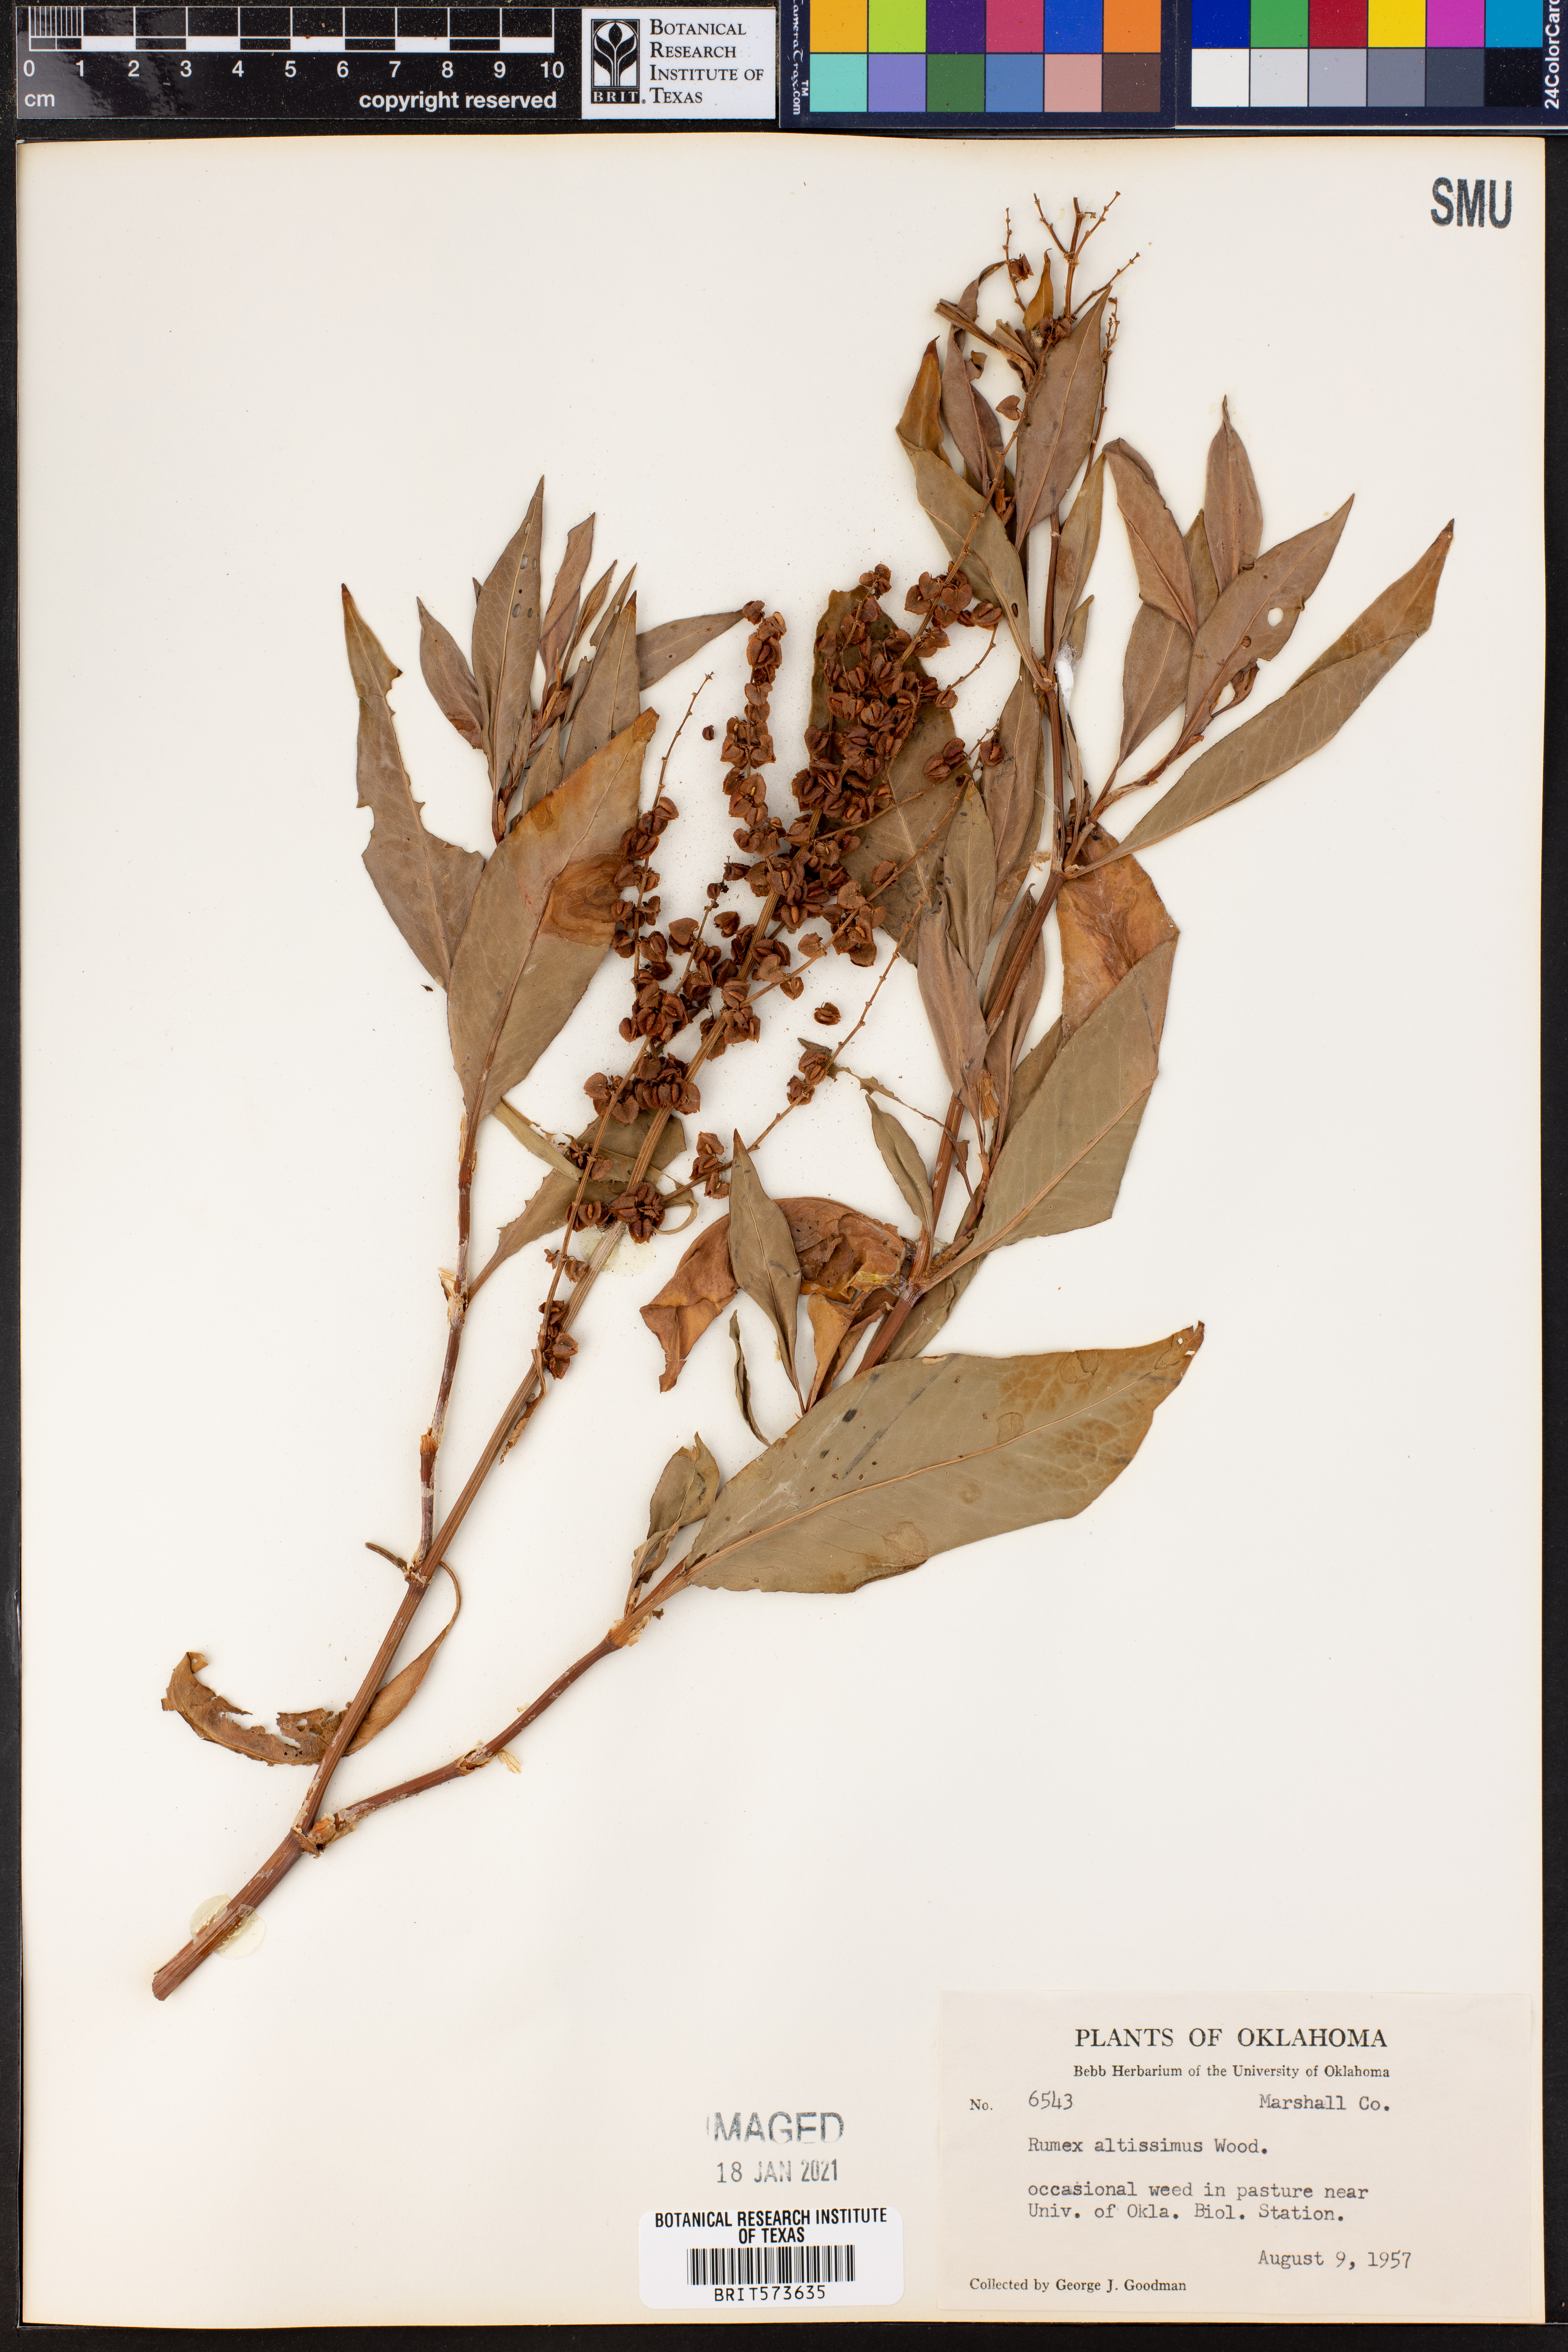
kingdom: Plantae
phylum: Tracheophyta
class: Magnoliopsida
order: Caryophyllales
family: Polygonaceae
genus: Rumex
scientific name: Rumex altissimus
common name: Smooth dock
